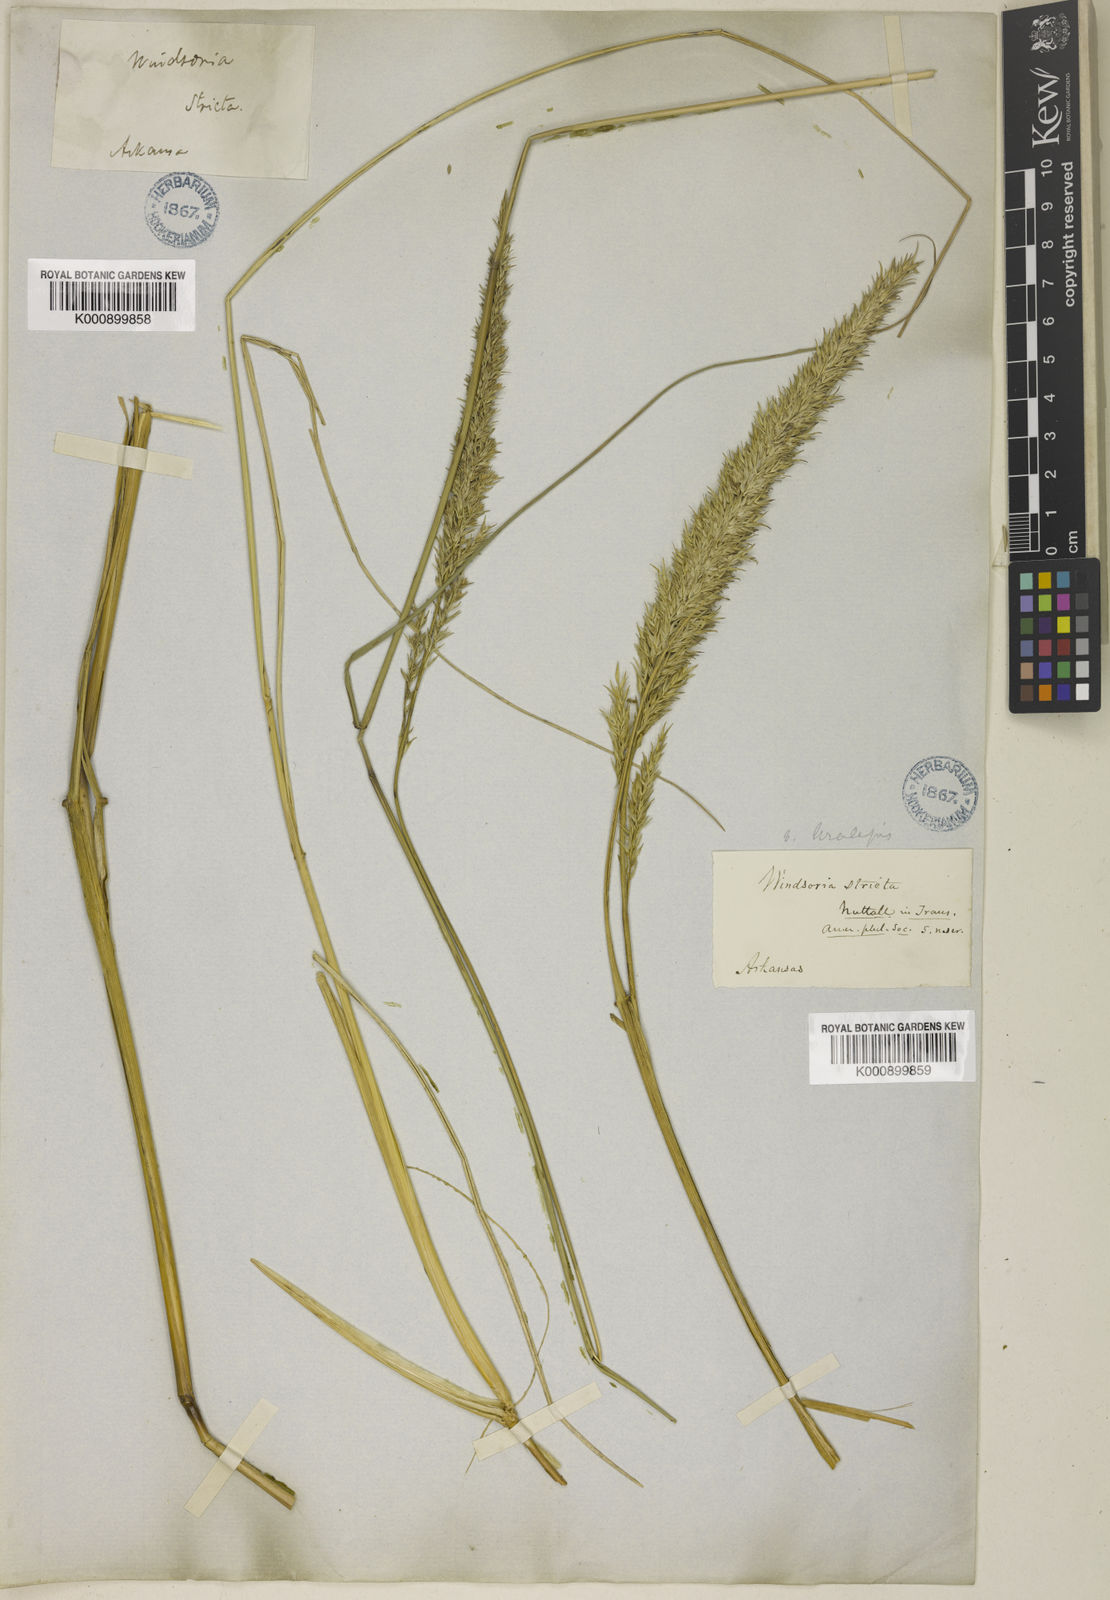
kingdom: Plantae
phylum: Tracheophyta
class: Liliopsida
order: Poales
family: Poaceae
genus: Tridens
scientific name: Tridens strictus
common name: Long-spike tridens
